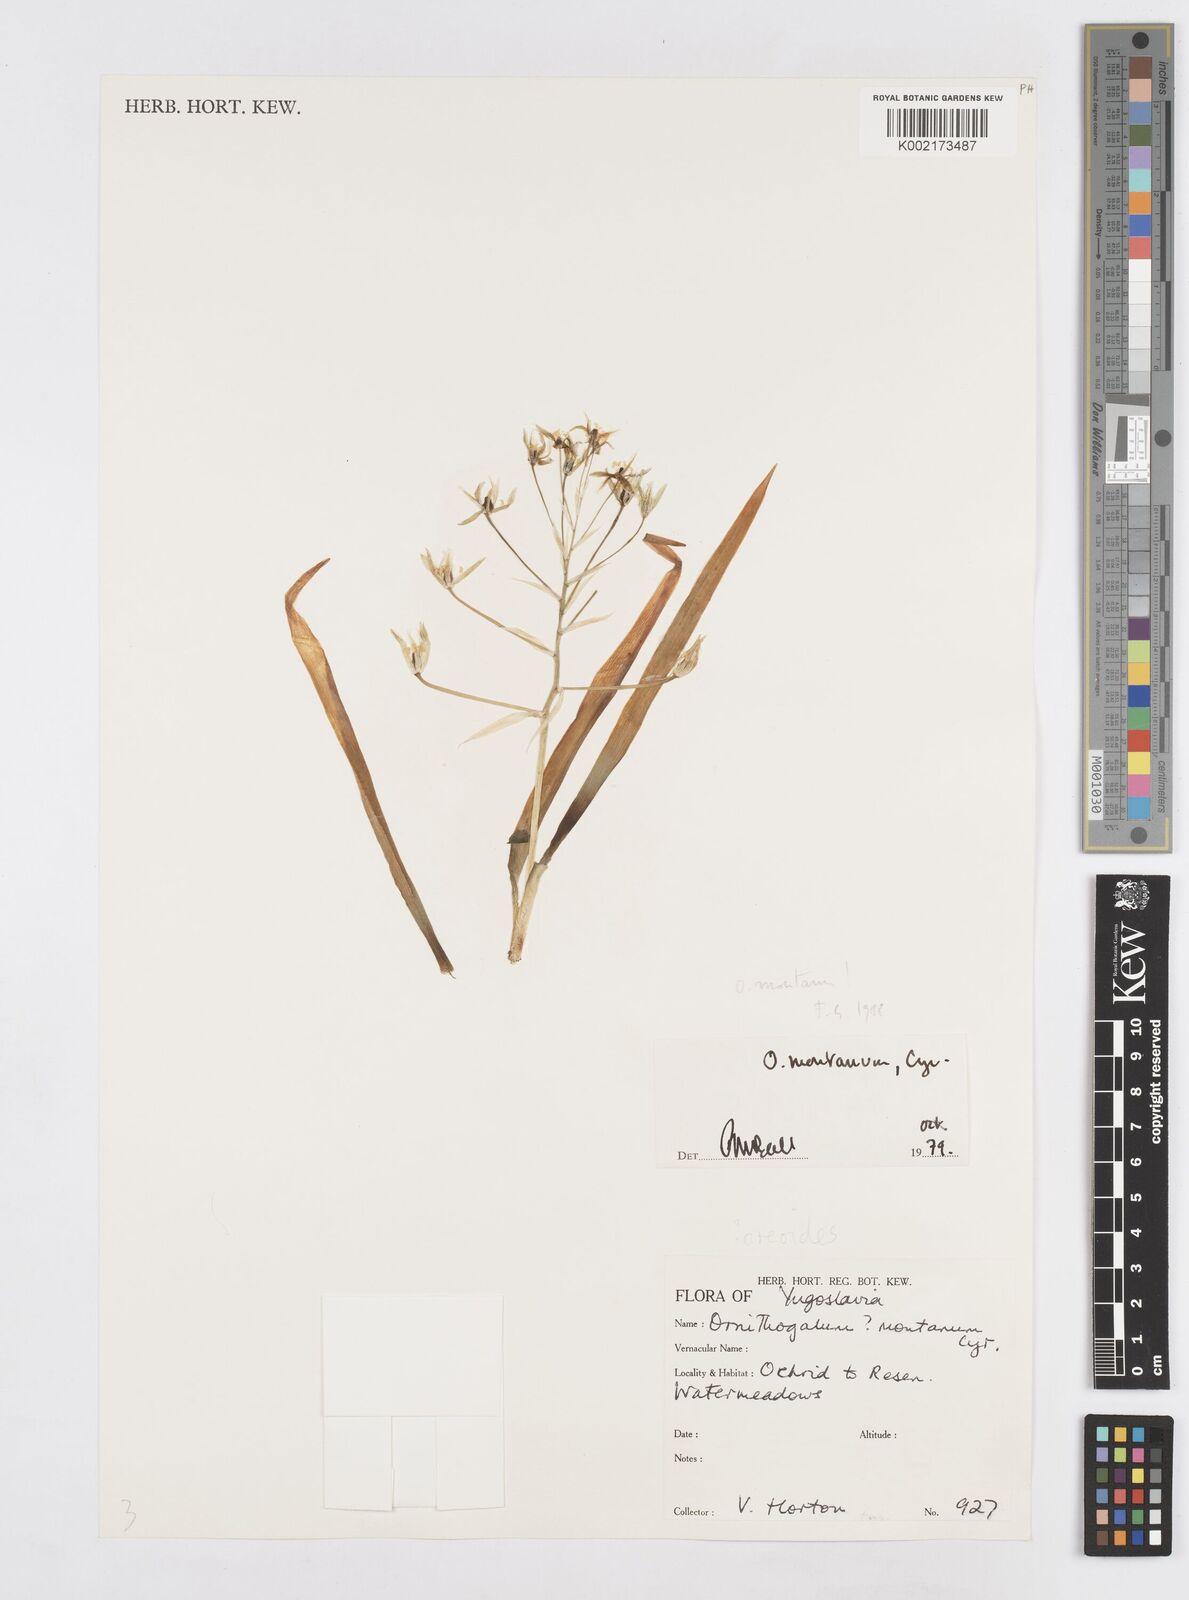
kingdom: Plantae
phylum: Tracheophyta
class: Liliopsida
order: Asparagales
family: Asparagaceae
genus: Ornithogalum
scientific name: Ornithogalum montanum
